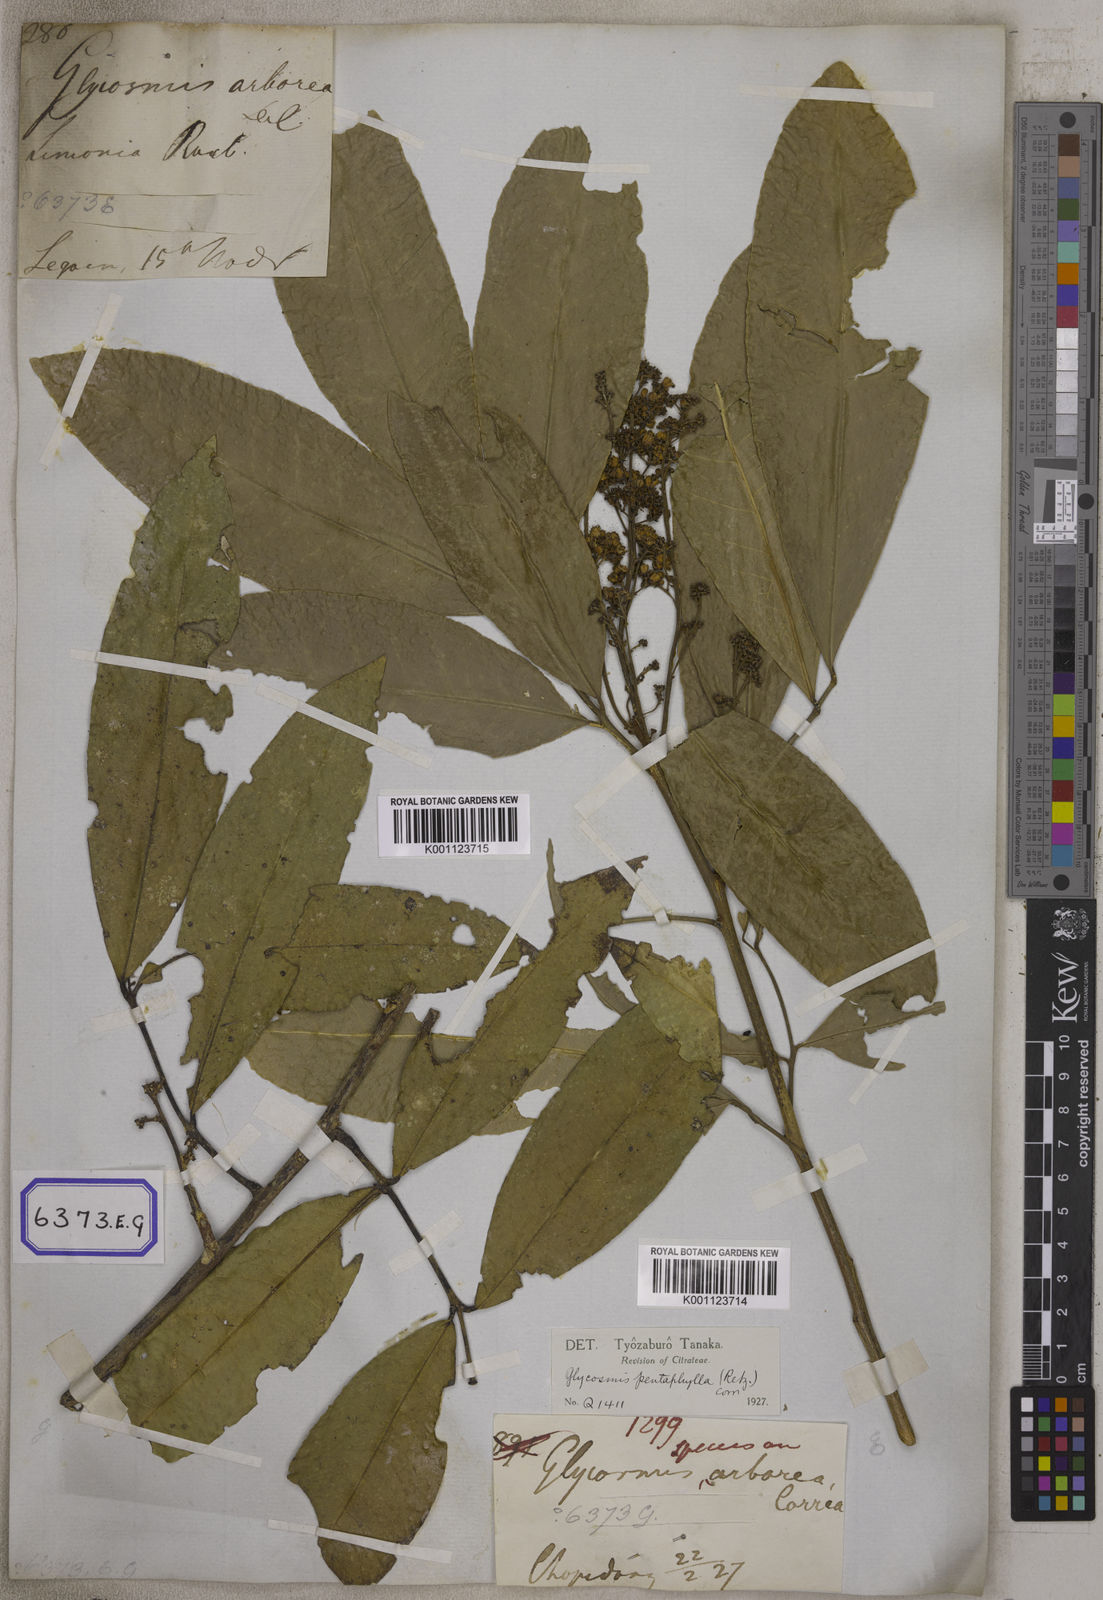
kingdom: Plantae
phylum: Tracheophyta
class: Magnoliopsida
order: Sapindales
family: Rutaceae
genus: Glycosmis
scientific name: Glycosmis pentaphylla
